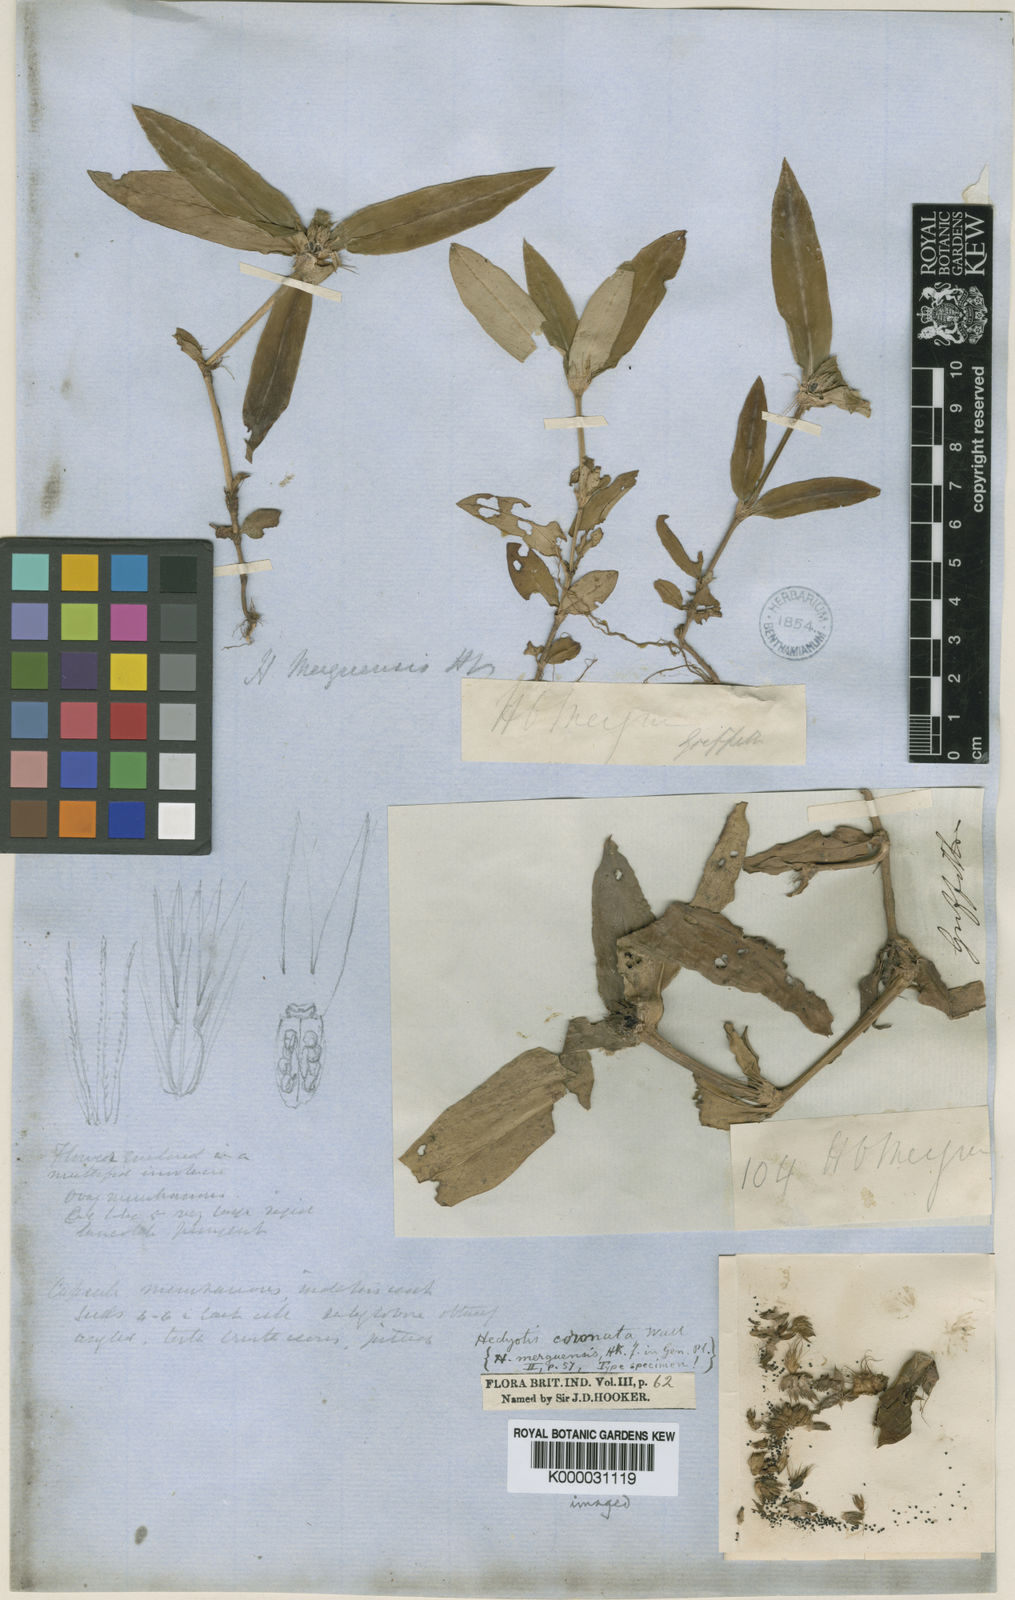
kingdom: Plantae
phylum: Tracheophyta
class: Magnoliopsida
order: Gentianales
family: Rubiaceae
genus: Hedyotis
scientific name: Hedyotis
